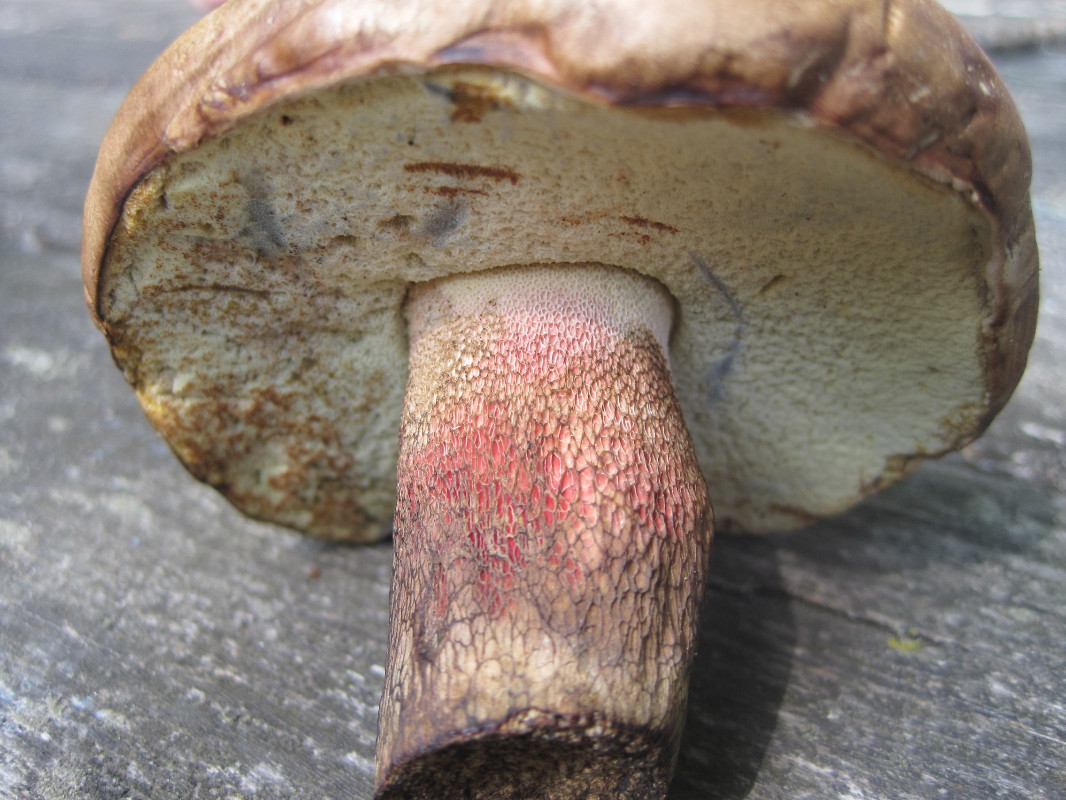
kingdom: Fungi
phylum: Basidiomycota
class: Agaricomycetes
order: Boletales
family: Boletaceae
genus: Caloboletus
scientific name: Caloboletus calopus
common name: skønfodet rørhat
